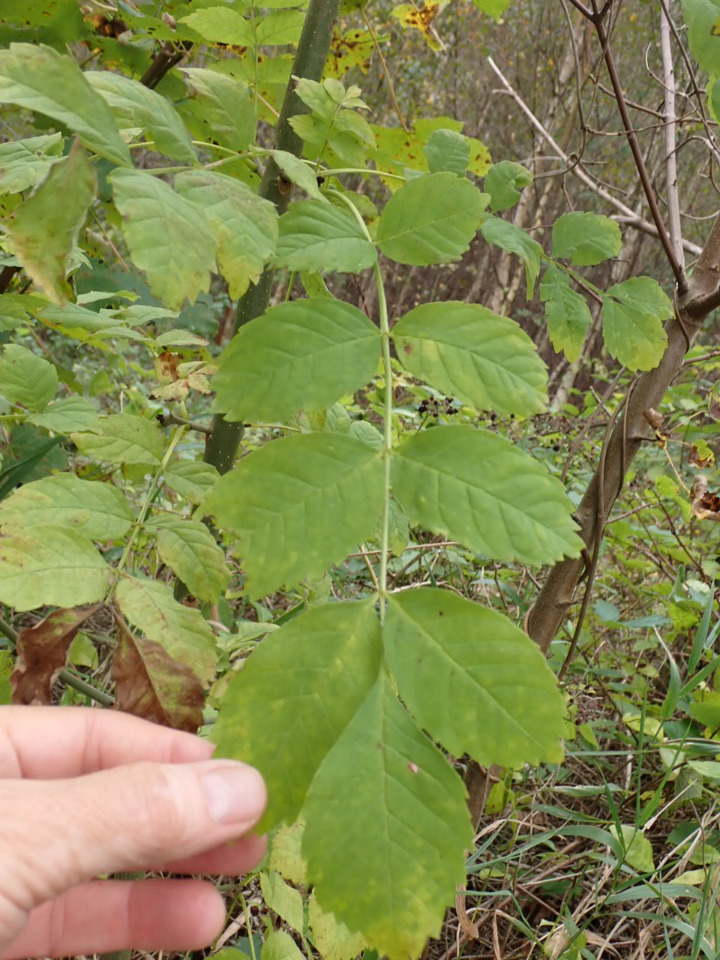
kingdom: Plantae
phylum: Tracheophyta
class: Magnoliopsida
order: Lamiales
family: Oleaceae
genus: Fraxinus
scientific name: Fraxinus excelsior
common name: Ask
